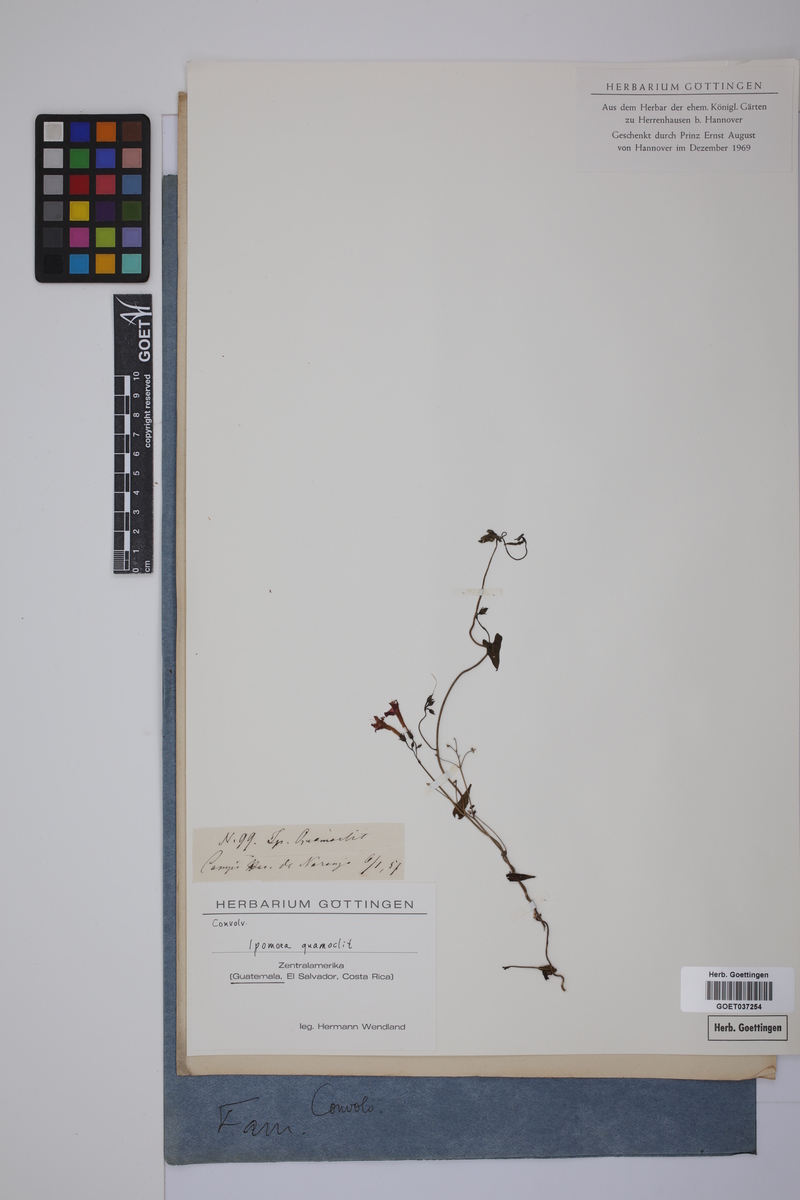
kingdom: Plantae
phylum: Tracheophyta
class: Magnoliopsida
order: Solanales
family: Convolvulaceae
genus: Ipomoea
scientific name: Ipomoea quamoclit
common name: Cypress vine
